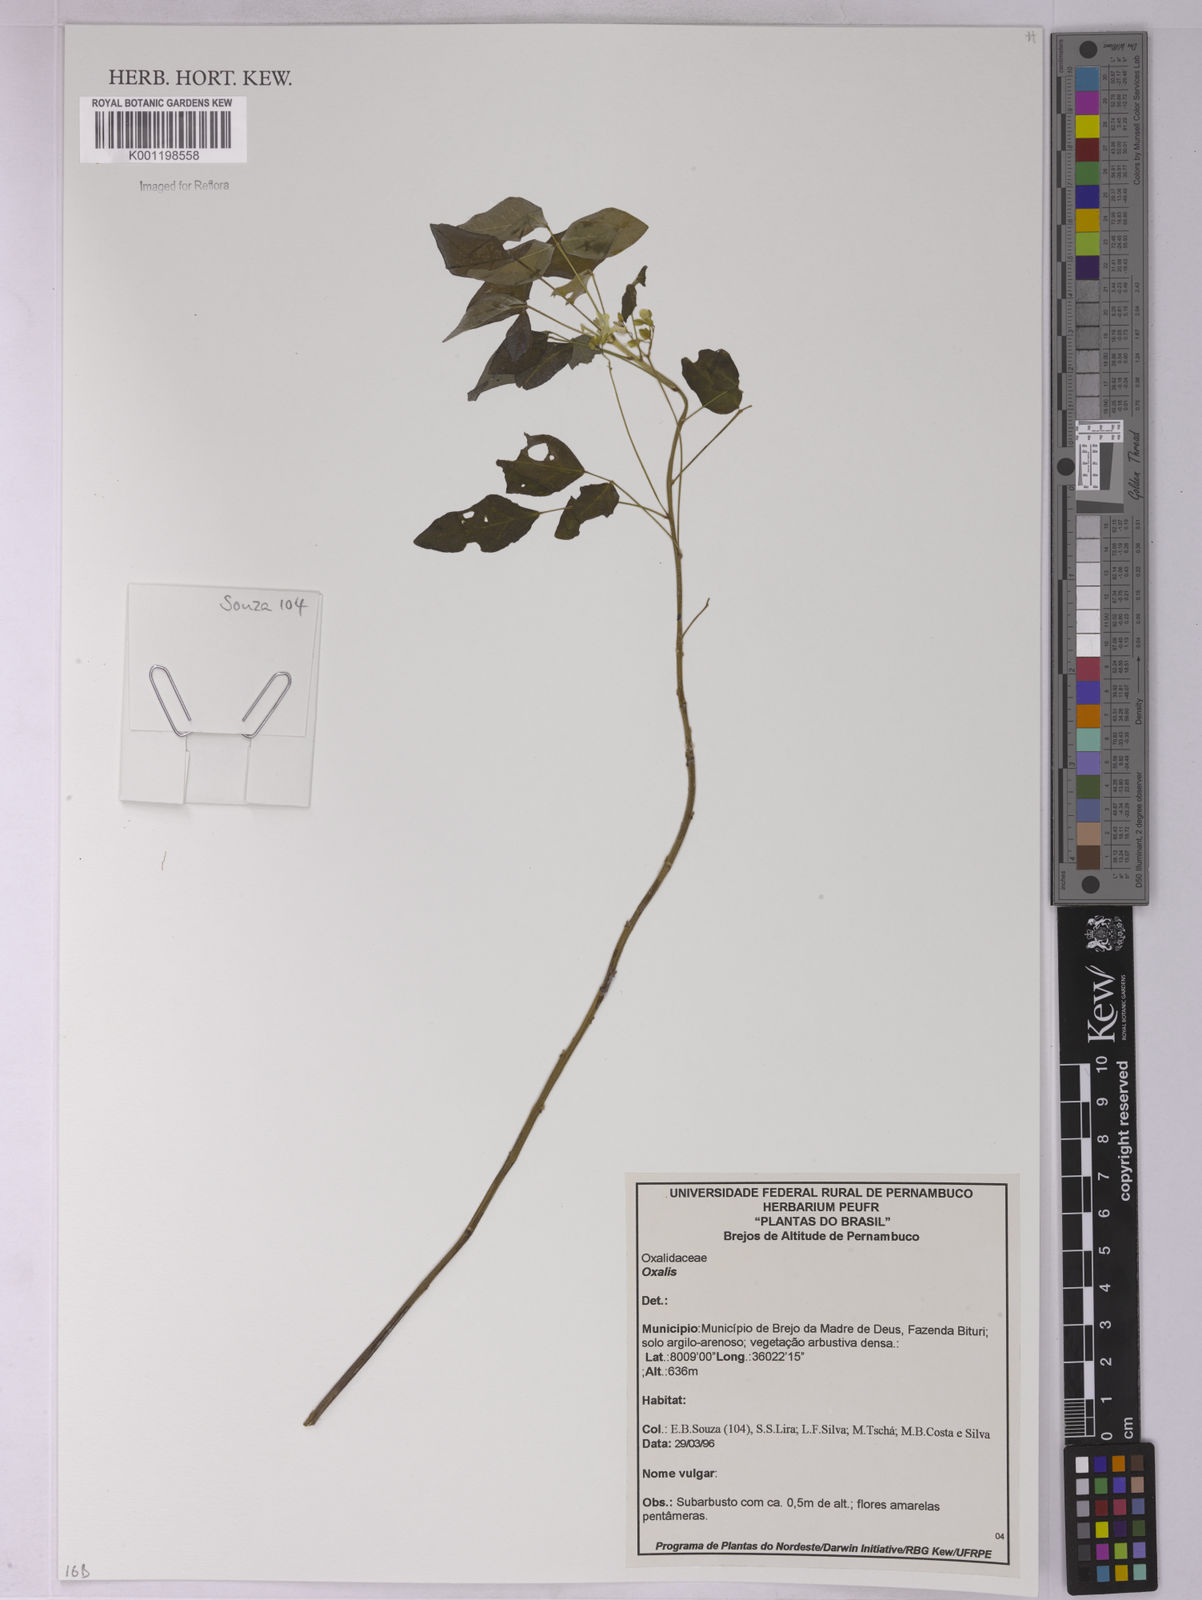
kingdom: Plantae
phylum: Tracheophyta
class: Magnoliopsida
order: Oxalidales
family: Oxalidaceae
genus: Oxalis
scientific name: Oxalis
